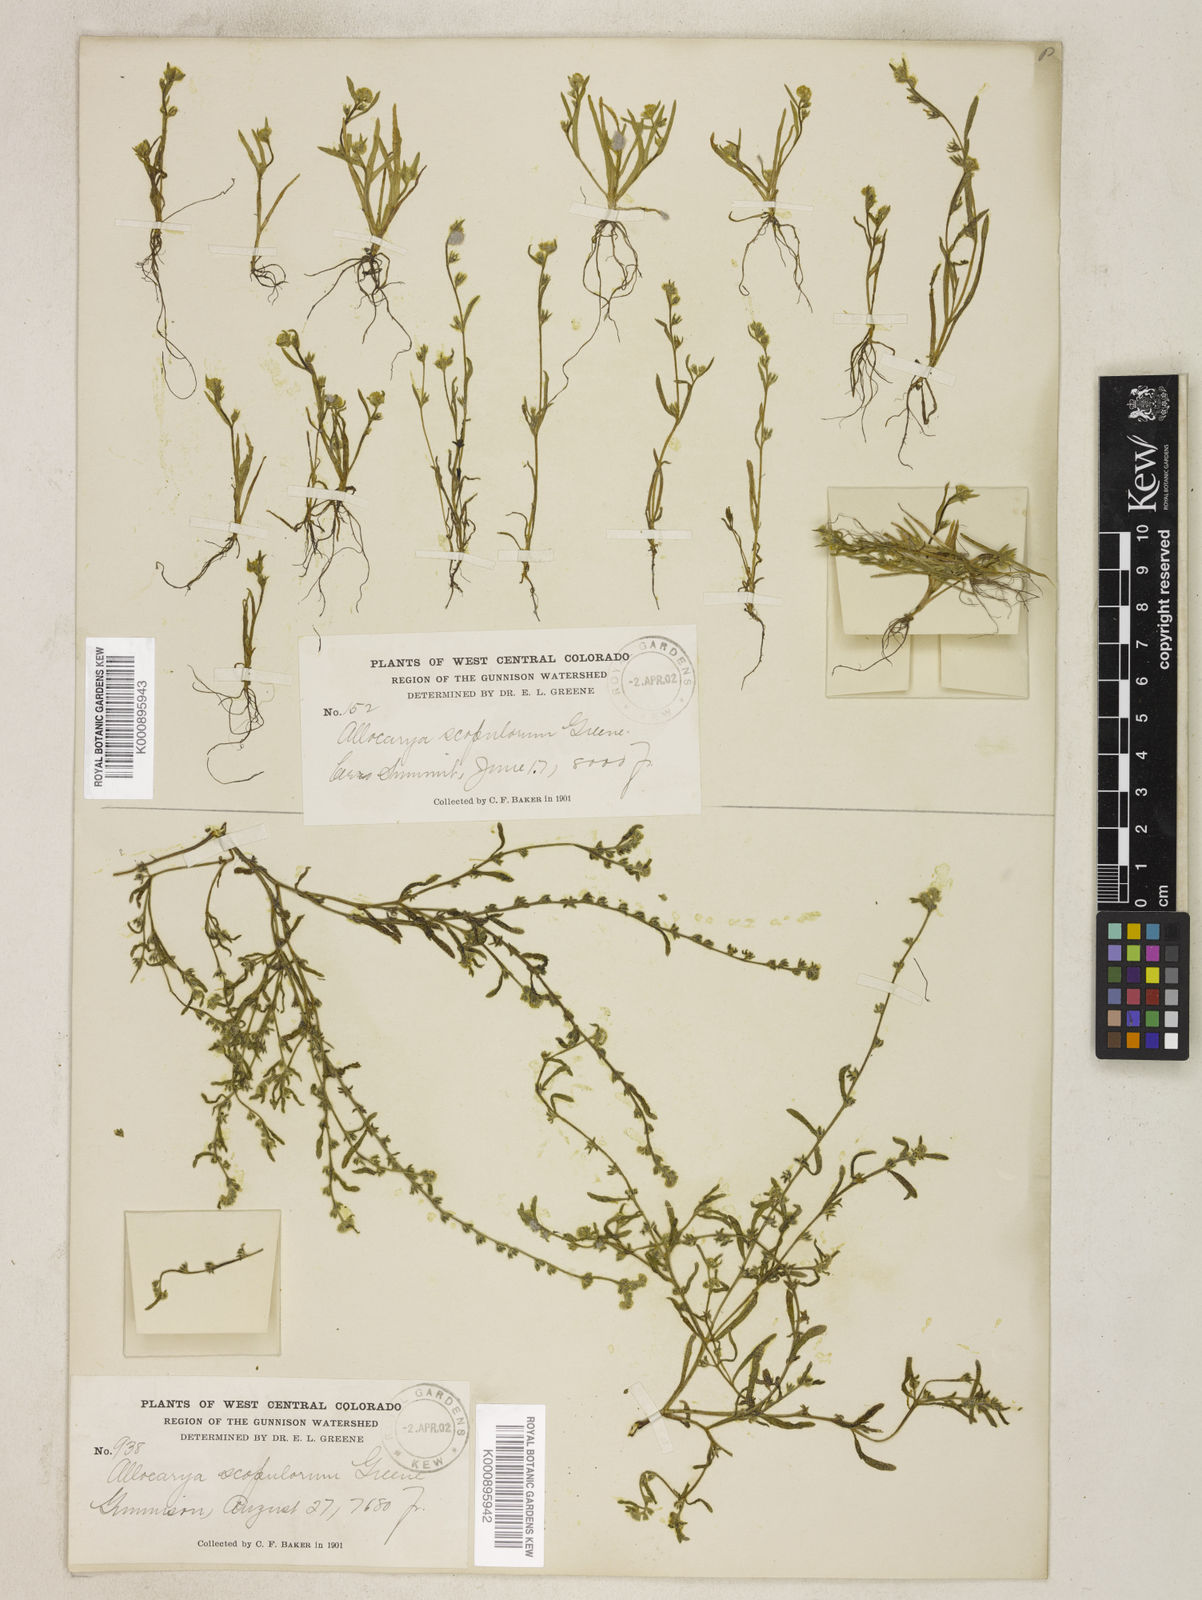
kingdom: Plantae
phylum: Tracheophyta
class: Magnoliopsida
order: Boraginales
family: Boraginaceae
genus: Plagiobothrys
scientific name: Plagiobothrys scouleri
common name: White forget-me-not
